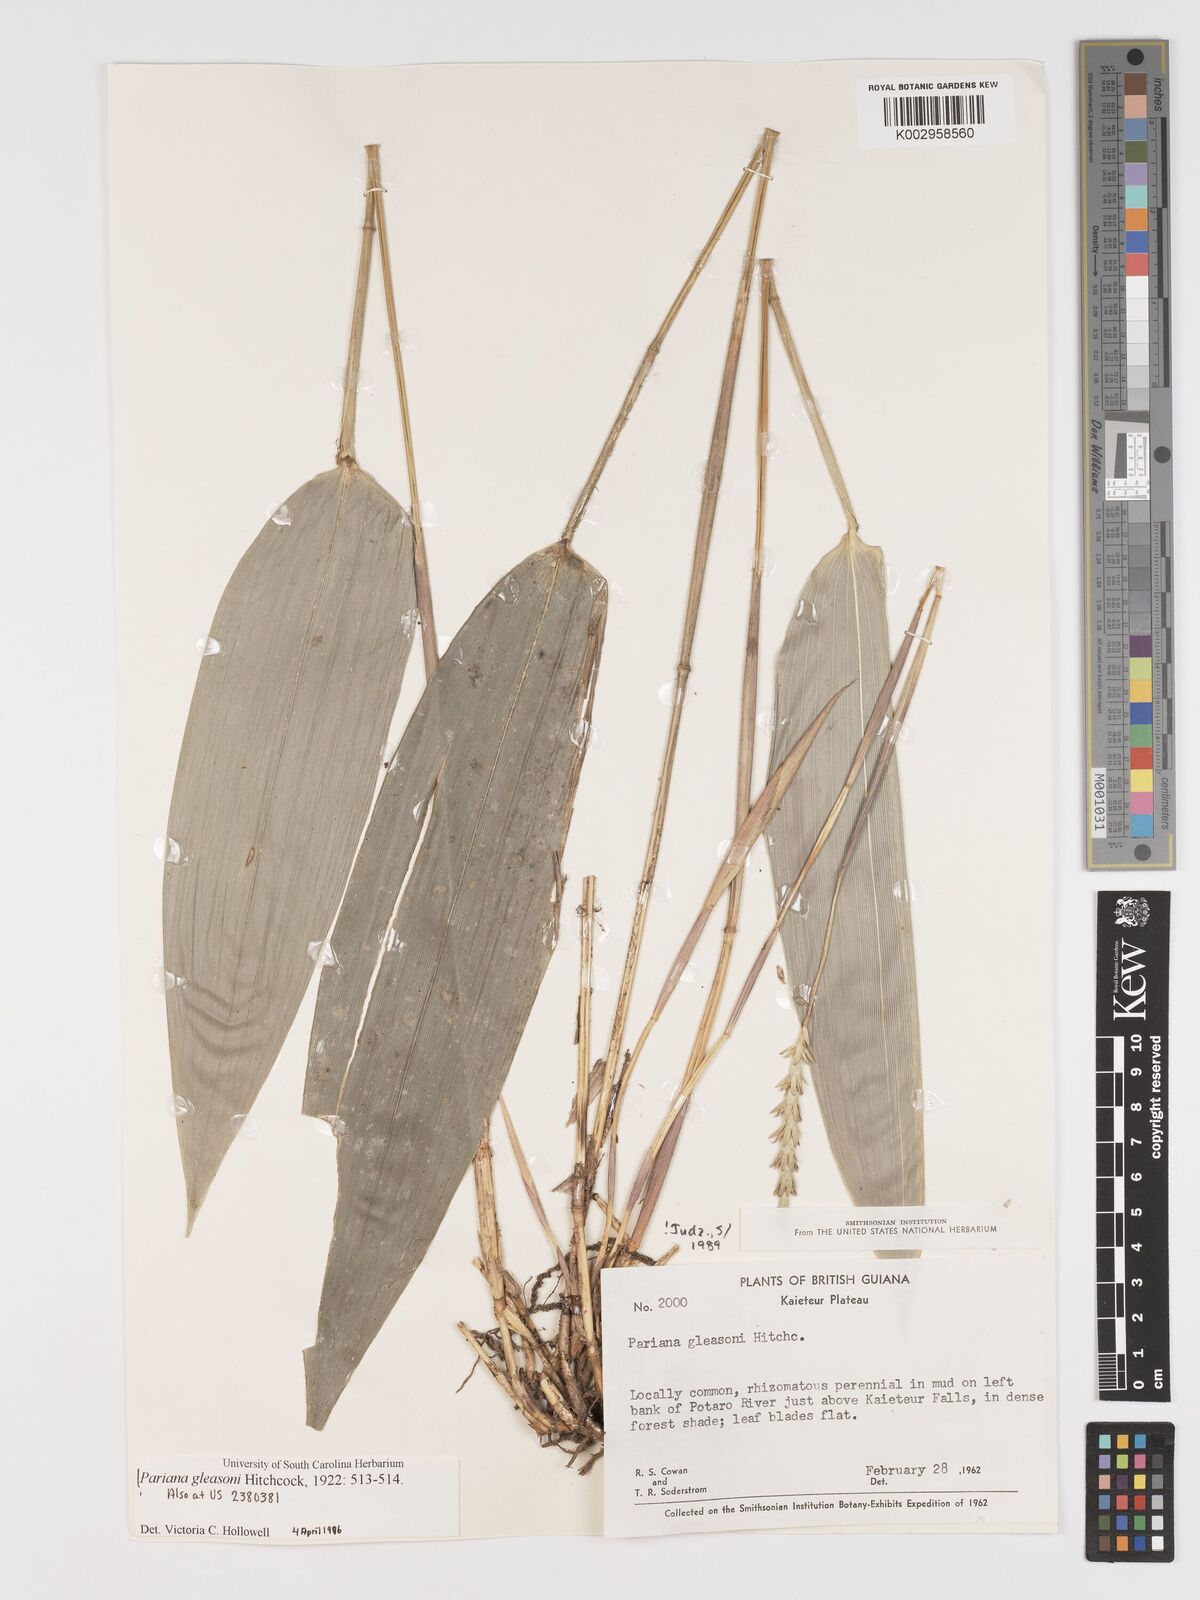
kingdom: Plantae
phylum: Tracheophyta
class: Liliopsida
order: Poales
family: Poaceae
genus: Pariana
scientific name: Pariana radiciflora
